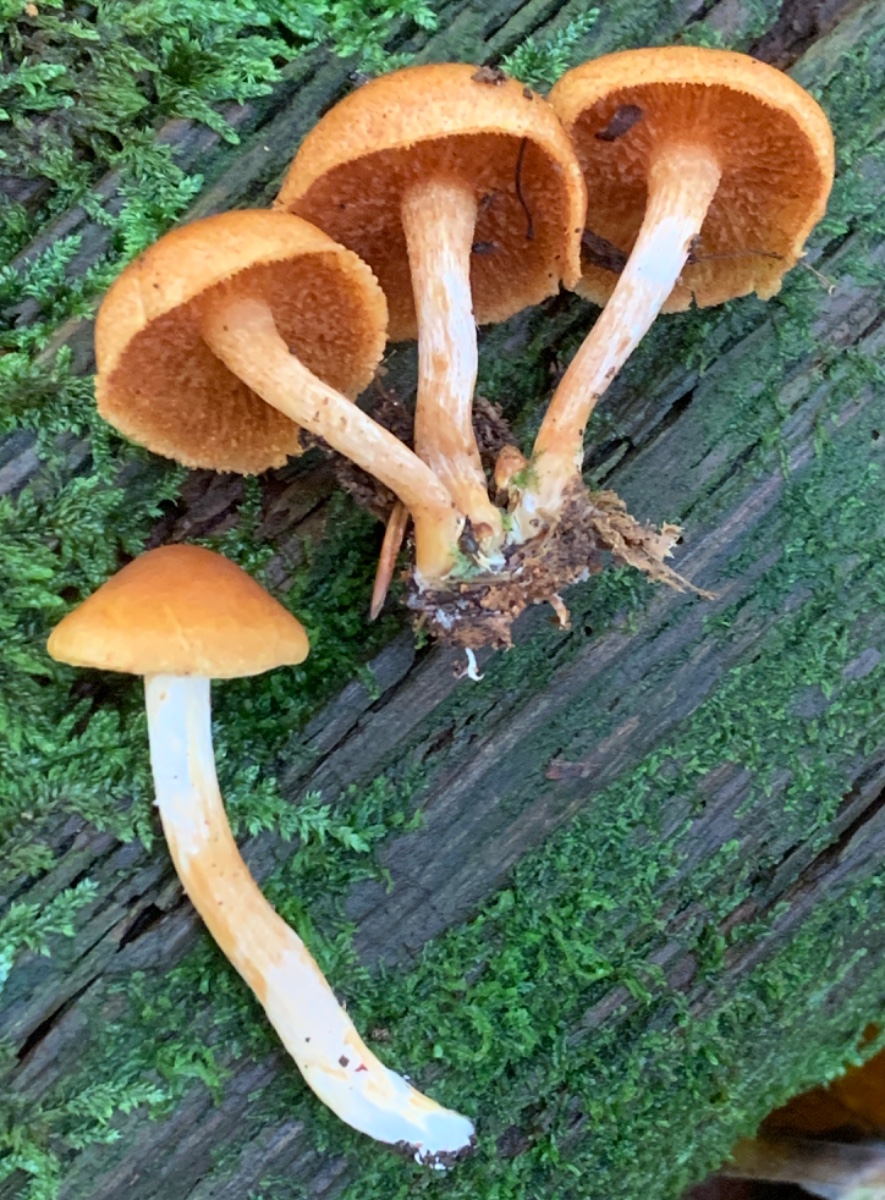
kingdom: Fungi
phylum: Basidiomycota
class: Agaricomycetes
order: Agaricales
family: Hymenogastraceae
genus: Gymnopilus
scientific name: Gymnopilus penetrans
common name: plettet flammehat
